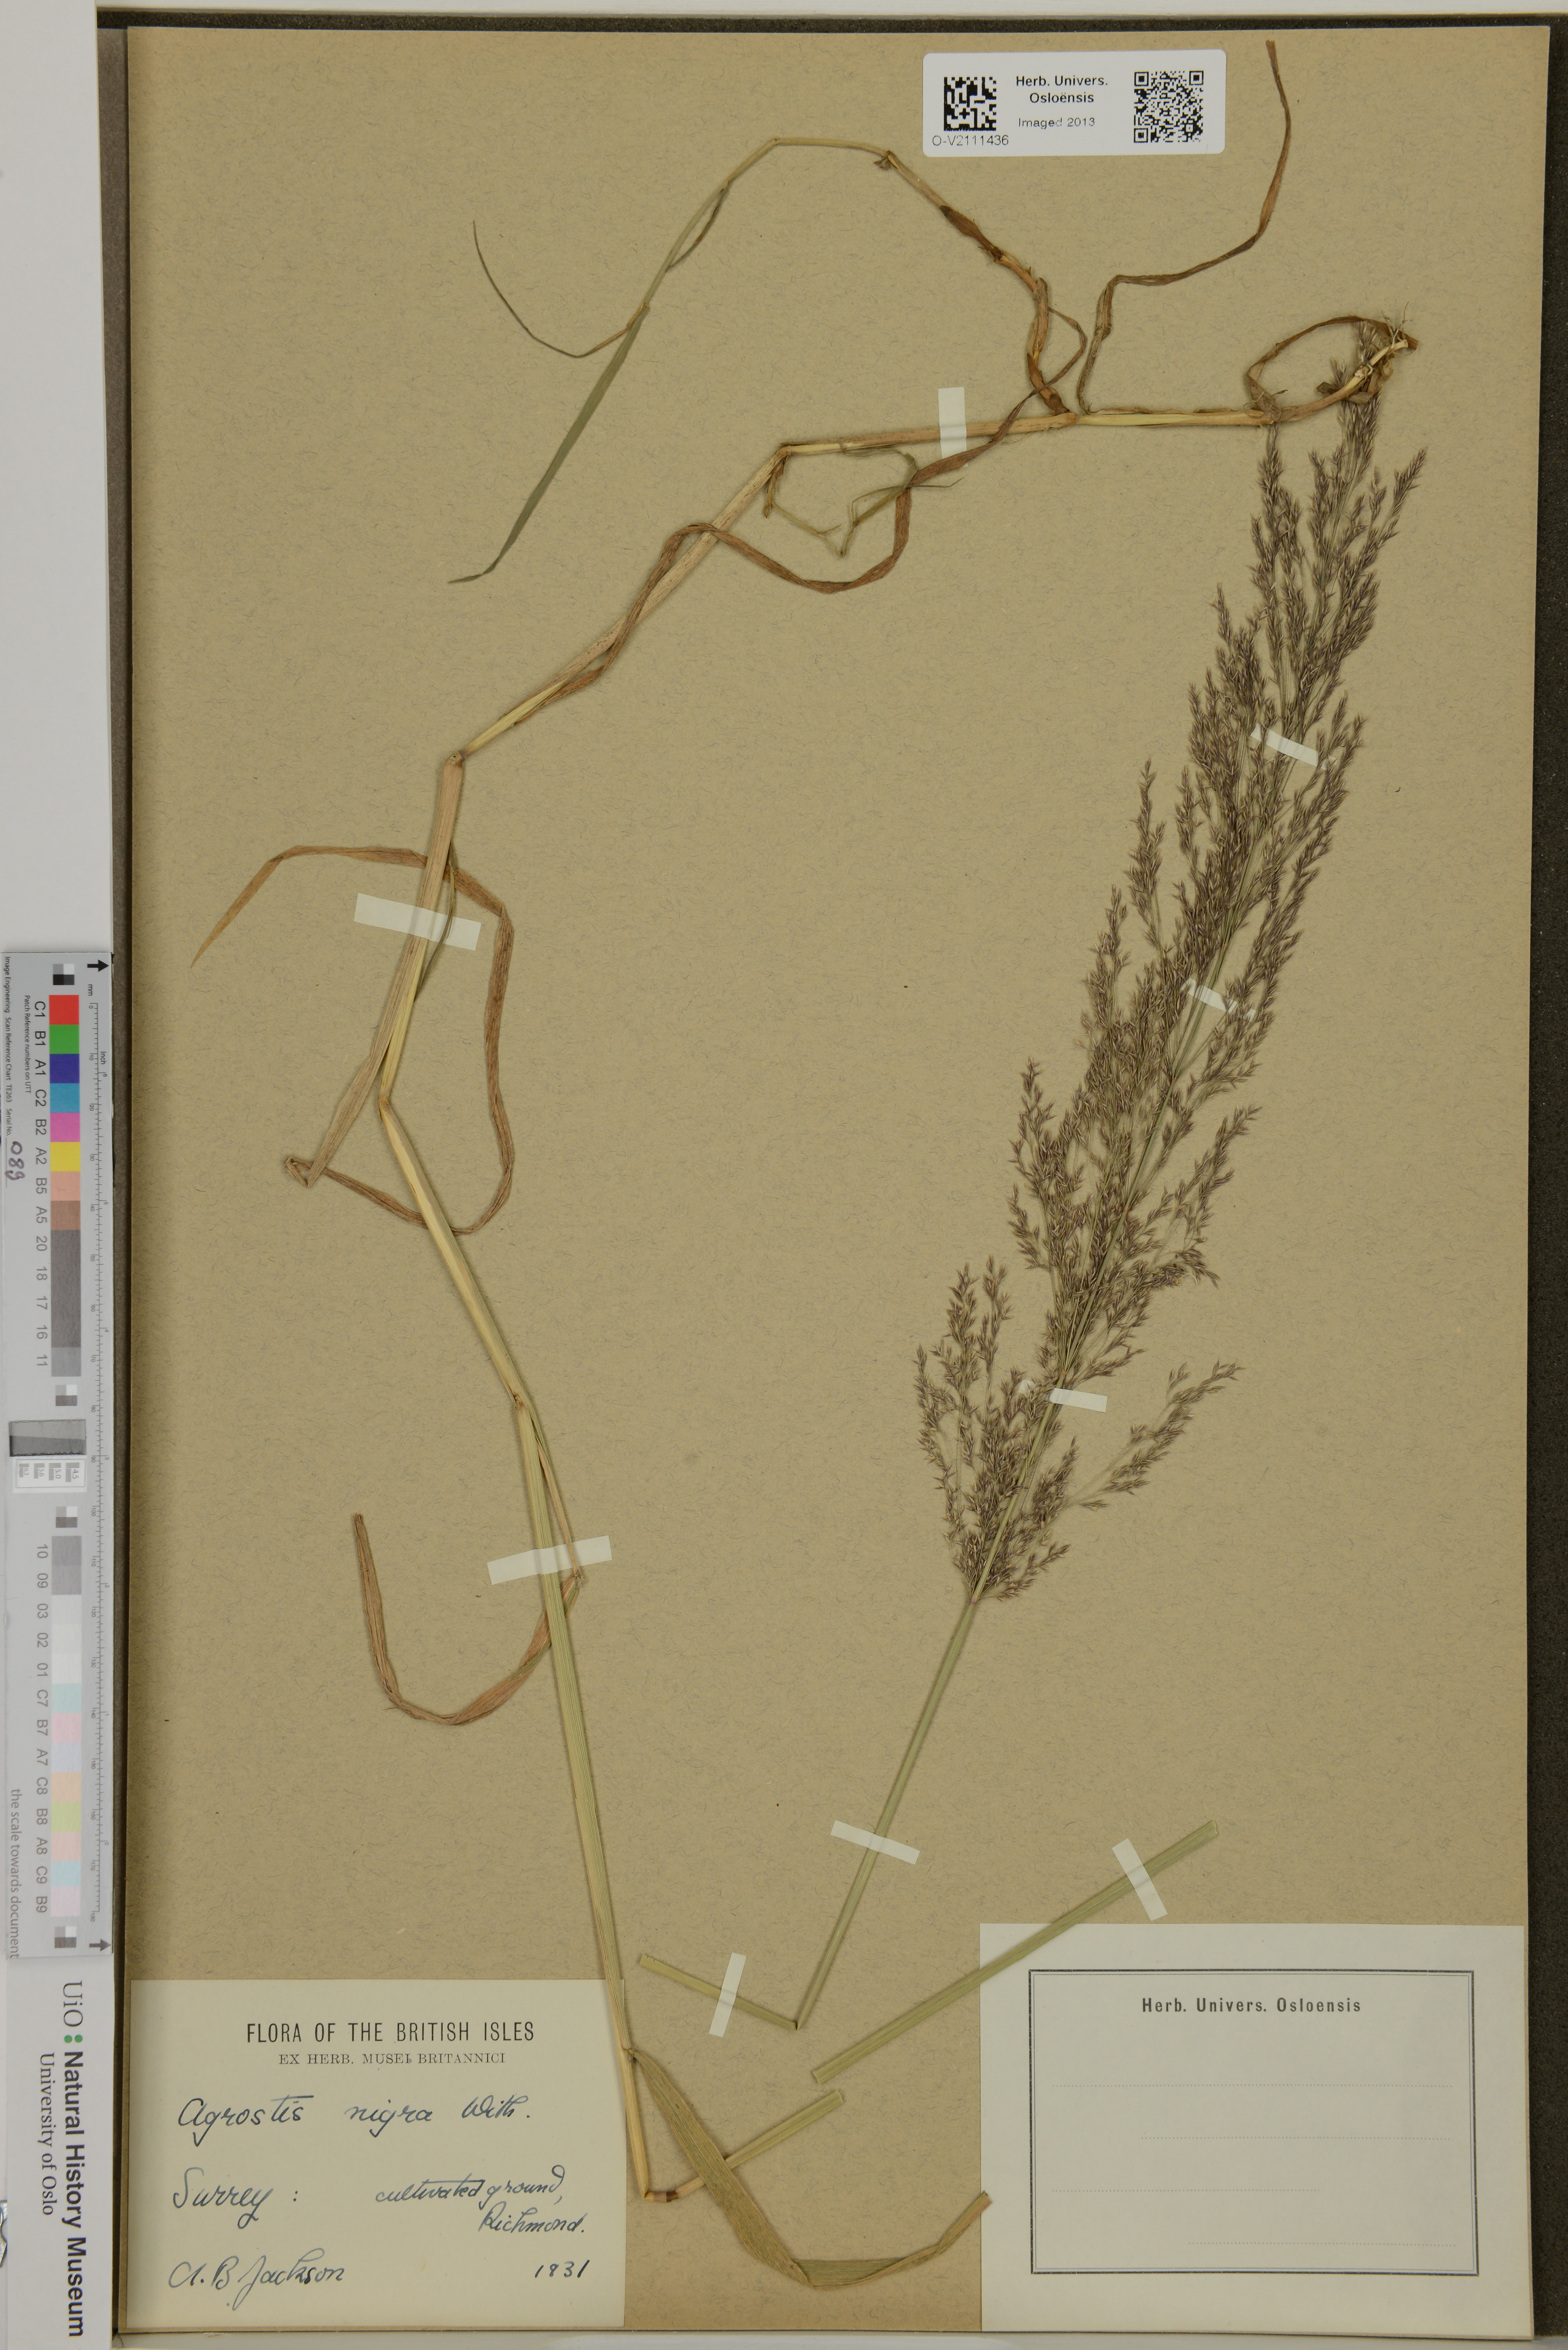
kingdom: Plantae
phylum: Tracheophyta
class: Liliopsida
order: Poales
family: Poaceae
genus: Agrostis
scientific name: Agrostis gigantea
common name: Black bent
